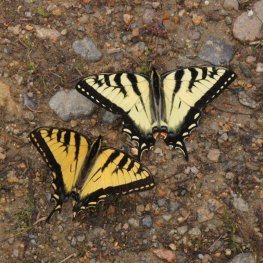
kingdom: Animalia
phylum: Arthropoda
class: Insecta
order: Lepidoptera
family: Papilionidae
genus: Pterourus
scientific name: Pterourus canadensis
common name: Canadian Tiger Swallowtail
